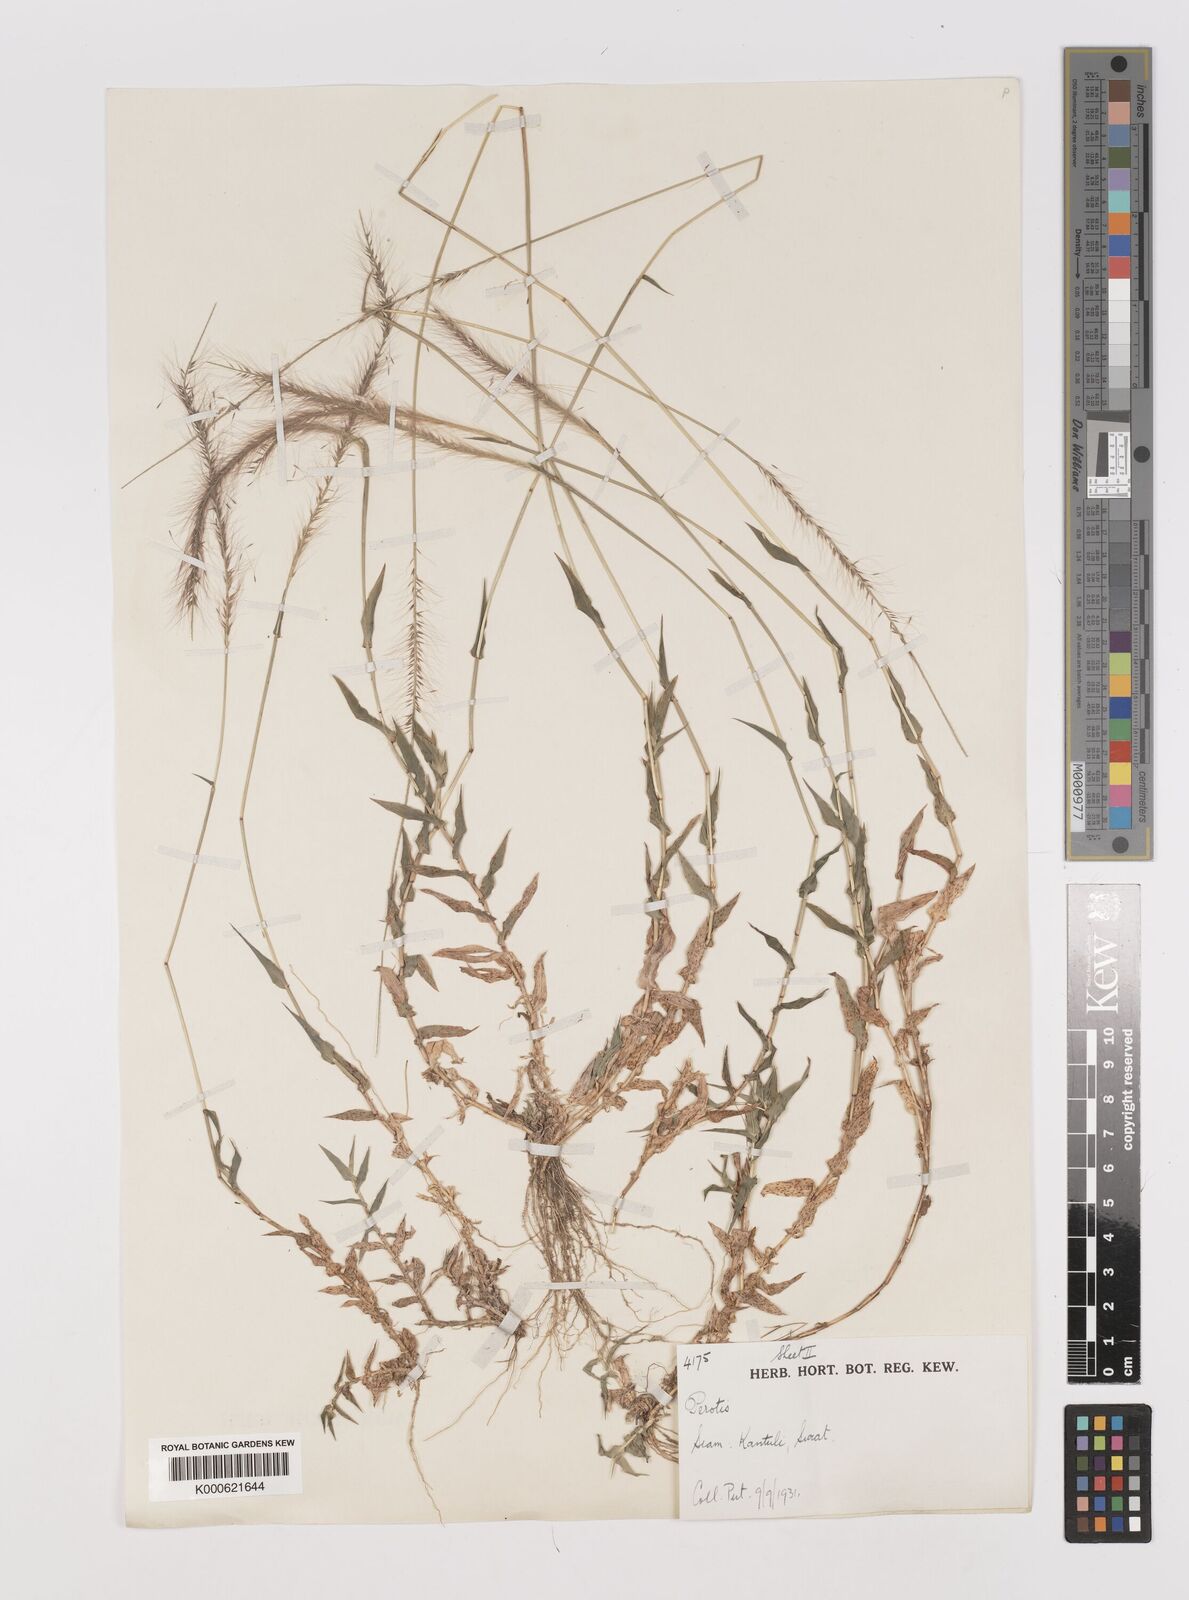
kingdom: Plantae
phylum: Tracheophyta
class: Liliopsida
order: Poales
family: Poaceae
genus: Perotis
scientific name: Perotis indica
